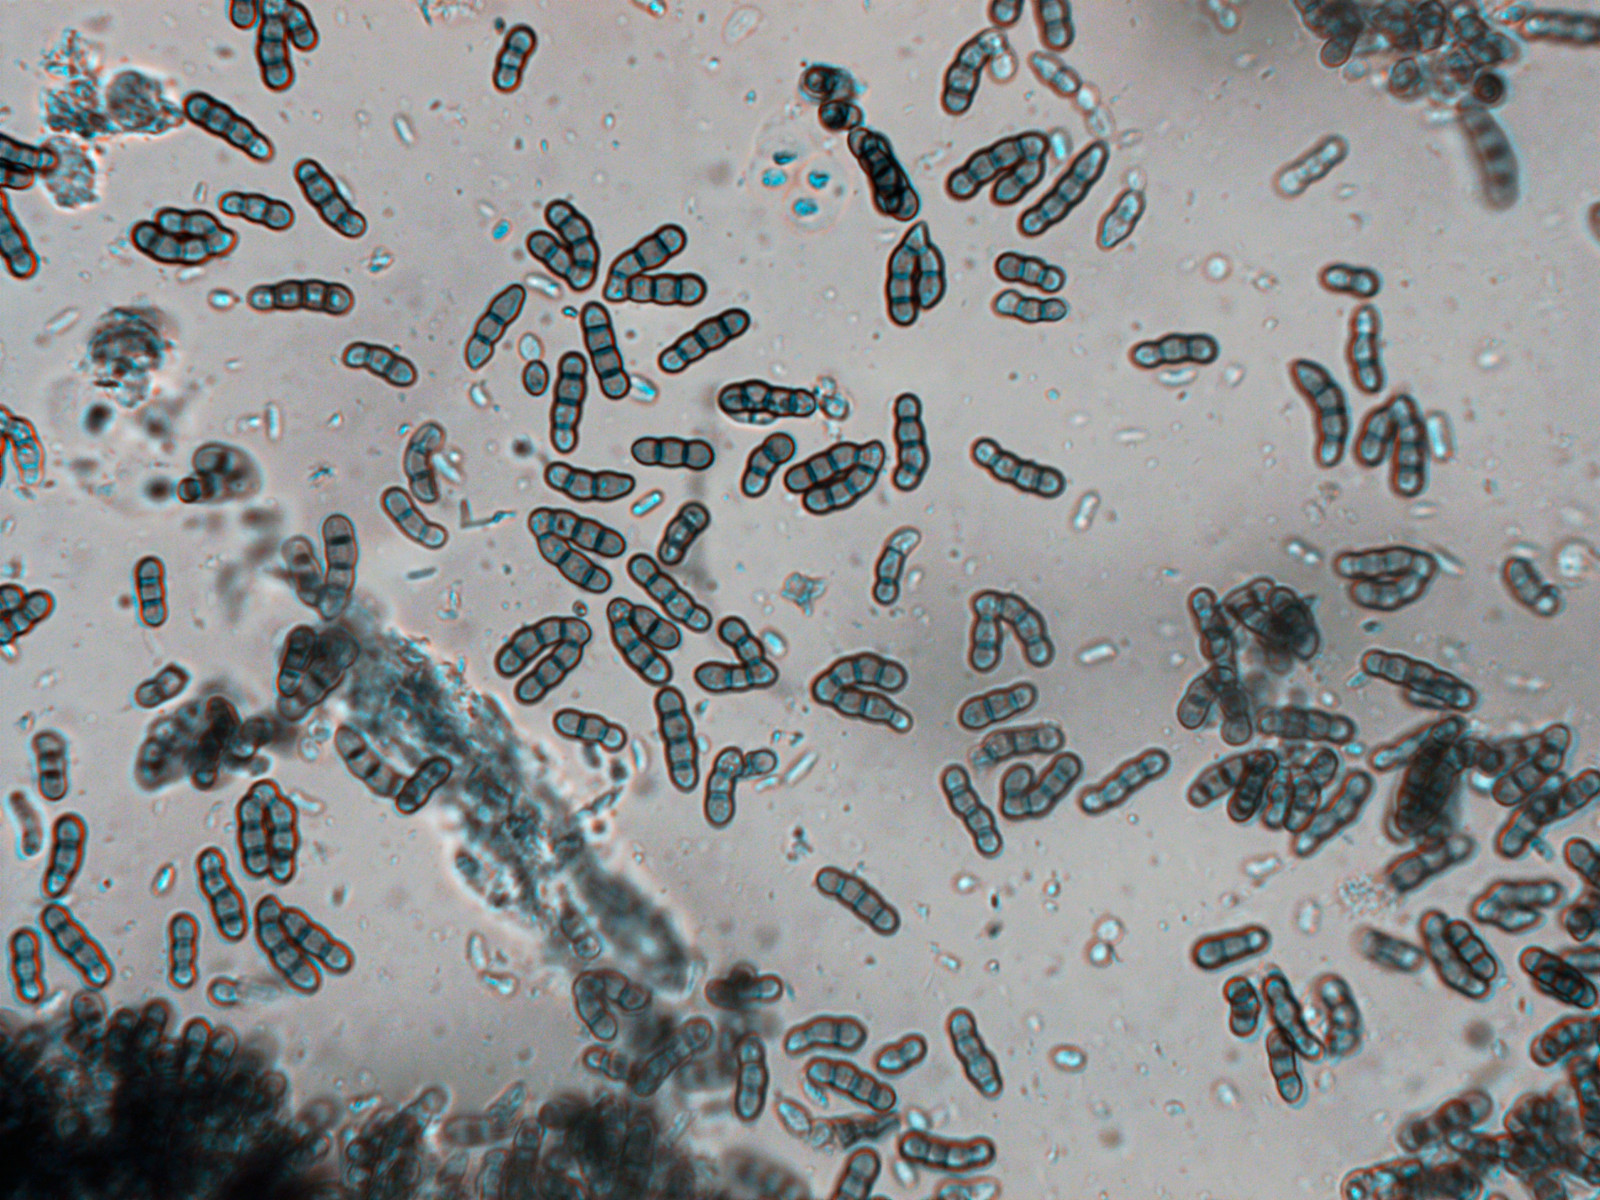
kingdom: Fungi
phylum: Ascomycota
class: Leotiomycetes
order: Helotiales
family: Hyaloscyphaceae
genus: Eupezizella
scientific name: Eupezizella aureliella
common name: almindelig klarskive
